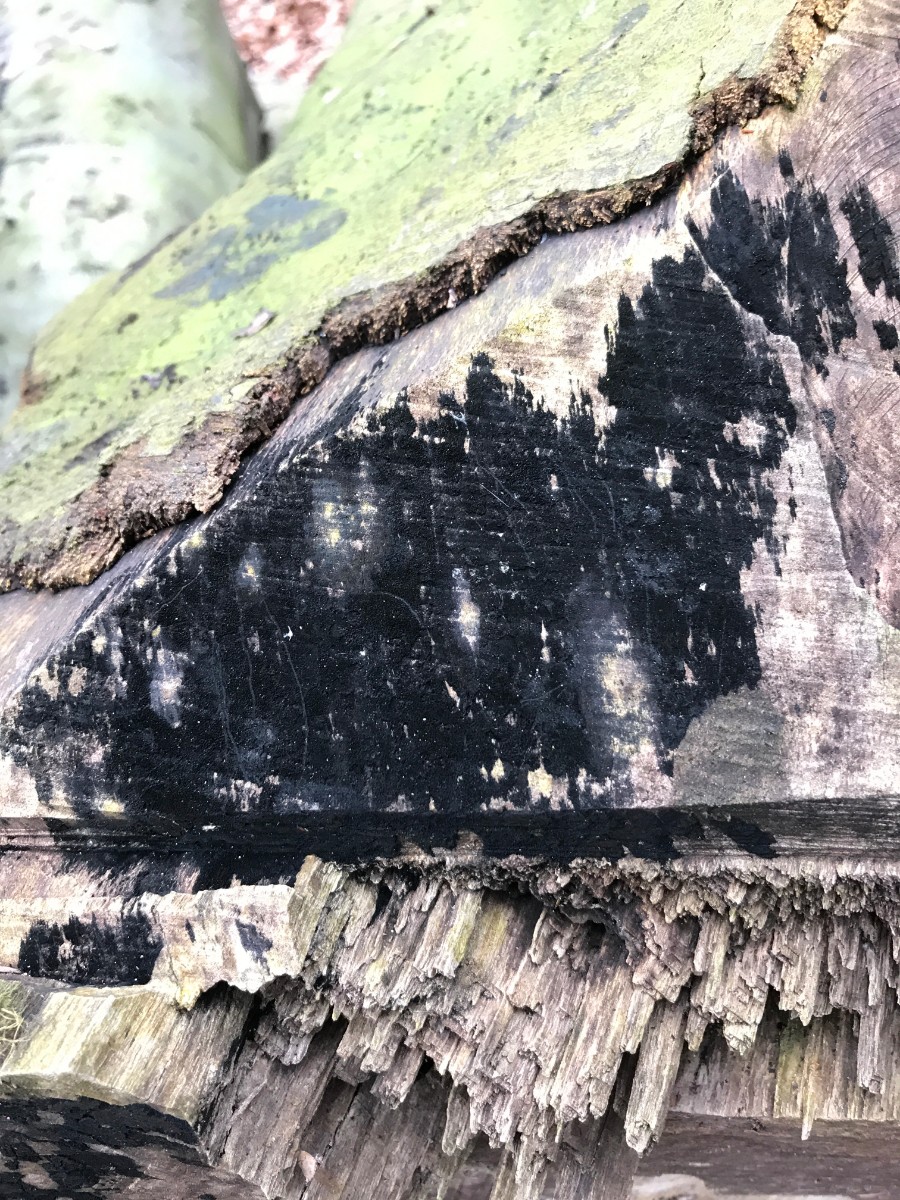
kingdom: Fungi
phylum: Ascomycota
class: Leotiomycetes
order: Helotiales
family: Helotiaceae
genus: Bispora
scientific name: Bispora pallescens
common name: måtte-snitskive
